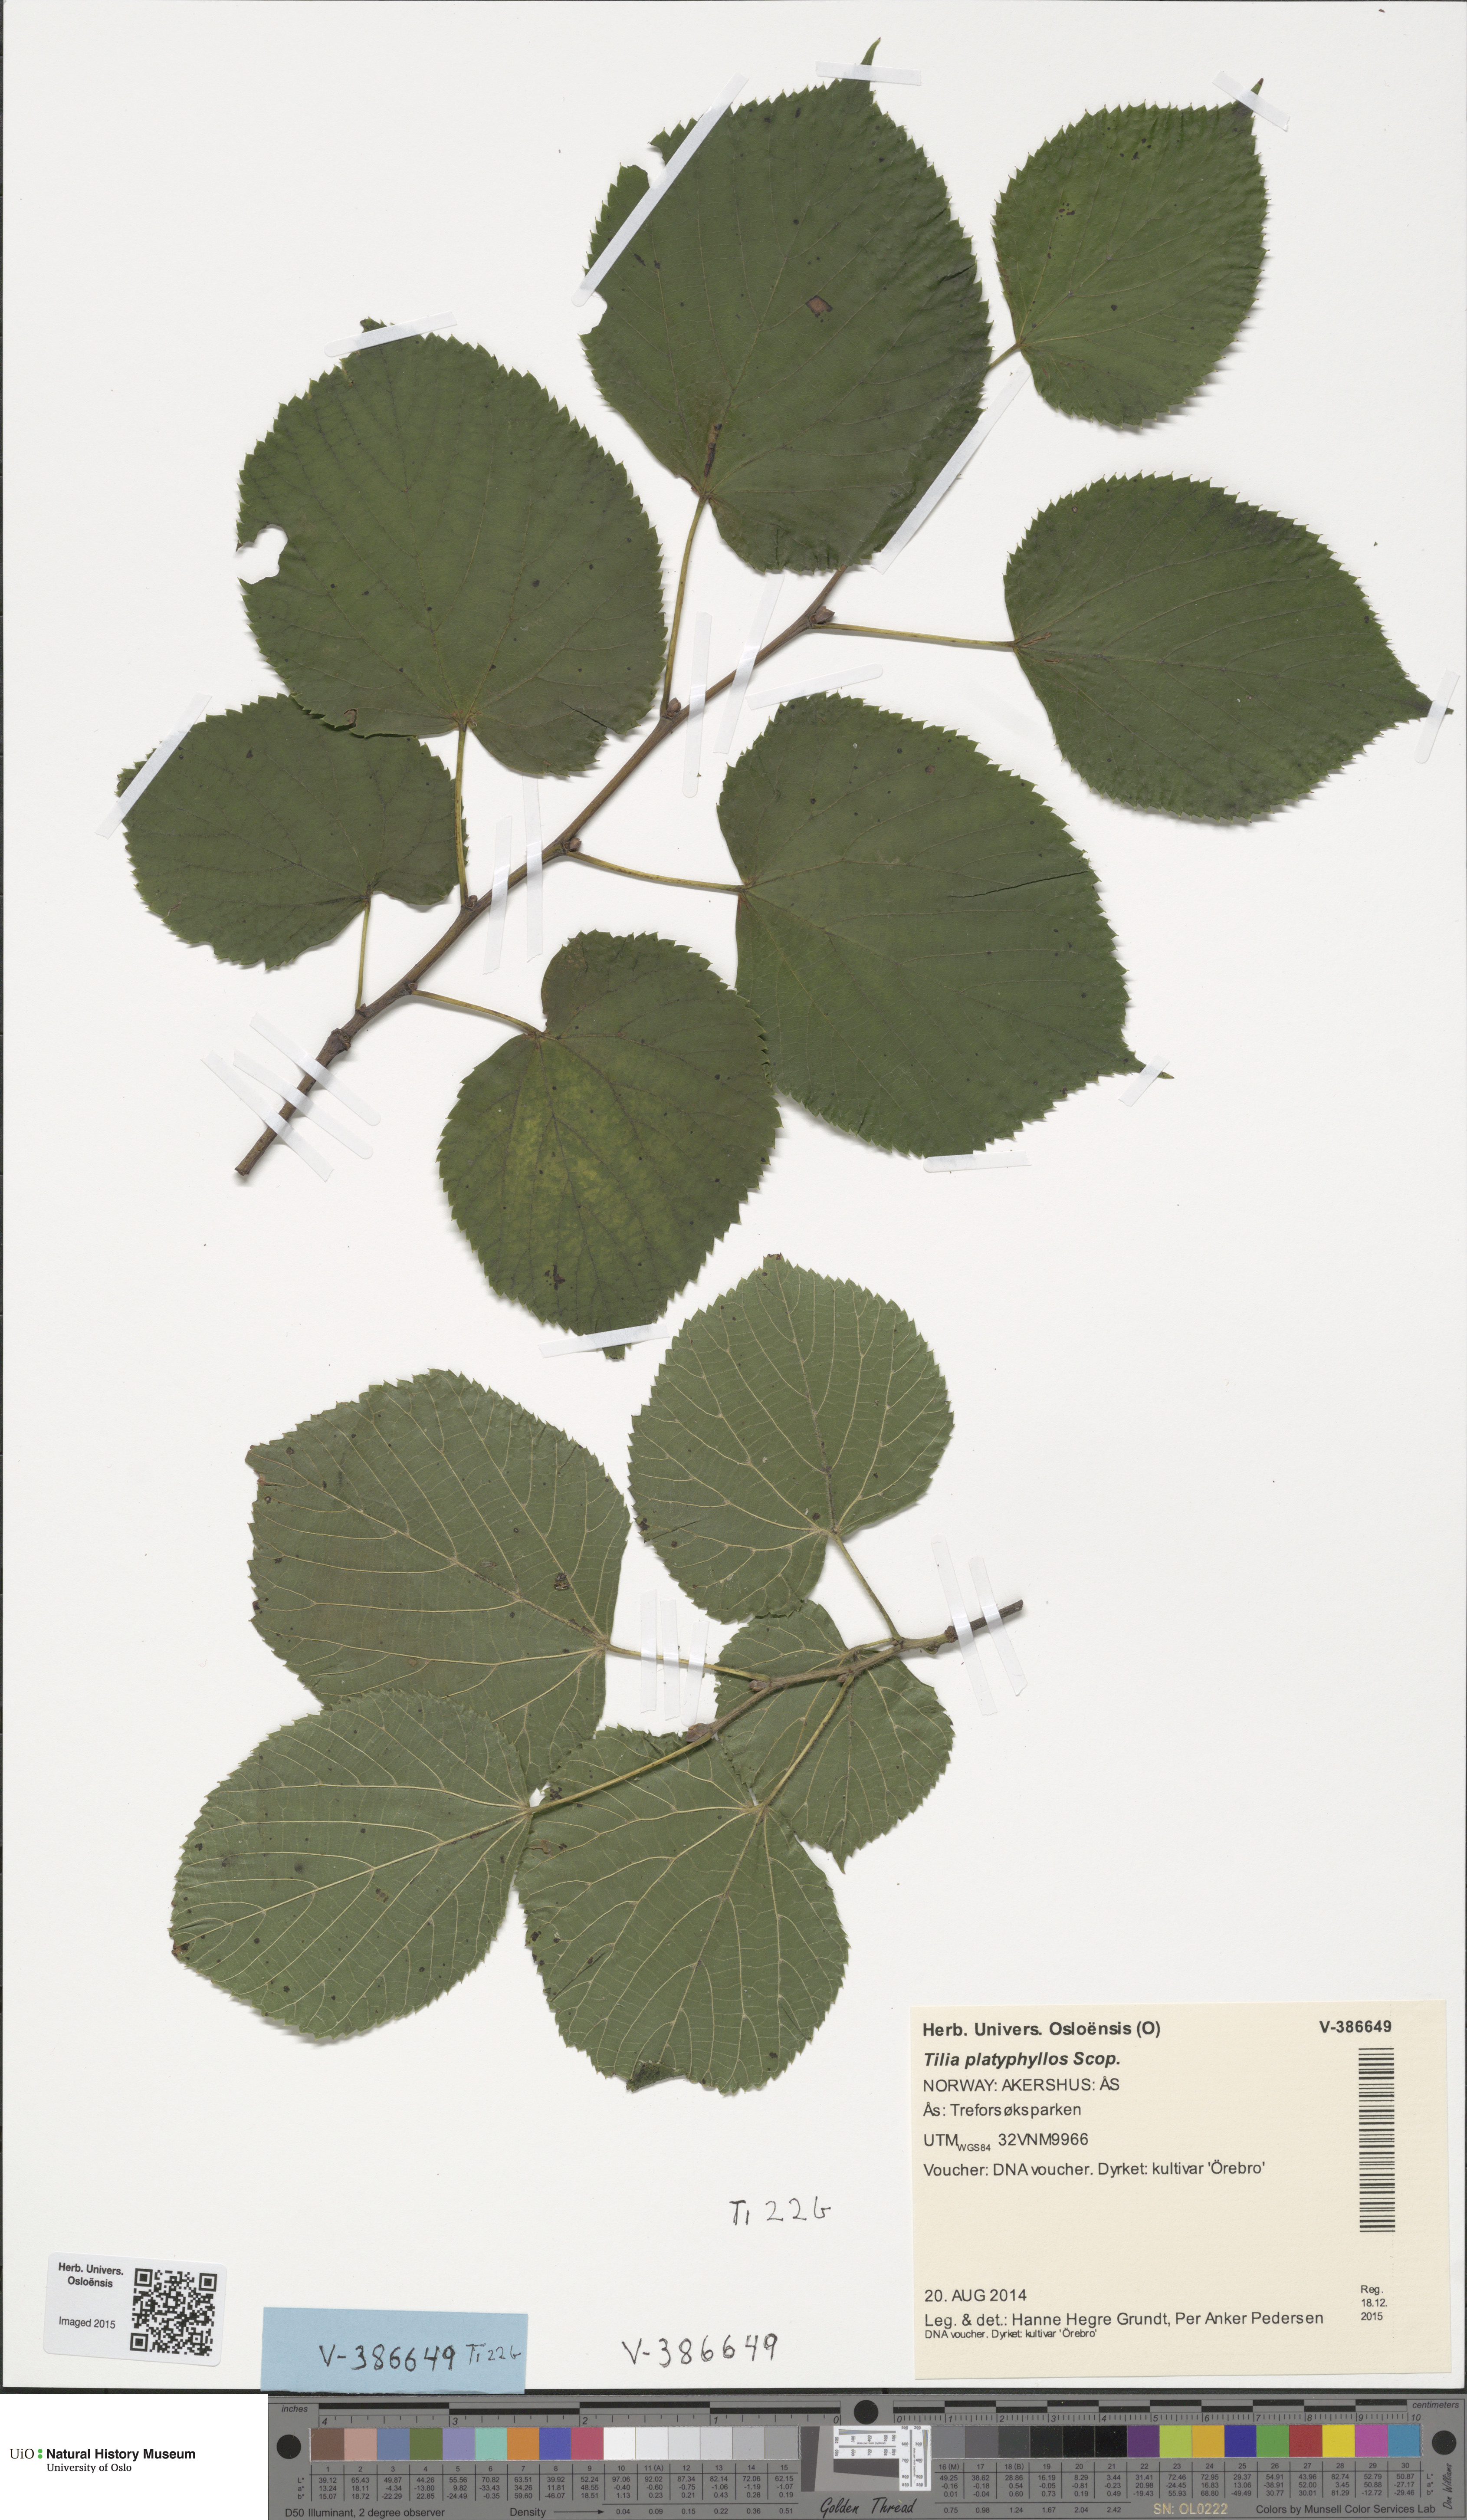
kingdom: Plantae
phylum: Tracheophyta
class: Magnoliopsida
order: Malvales
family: Malvaceae
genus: Tilia
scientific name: Tilia platyphyllos
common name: Large-leaved lime
